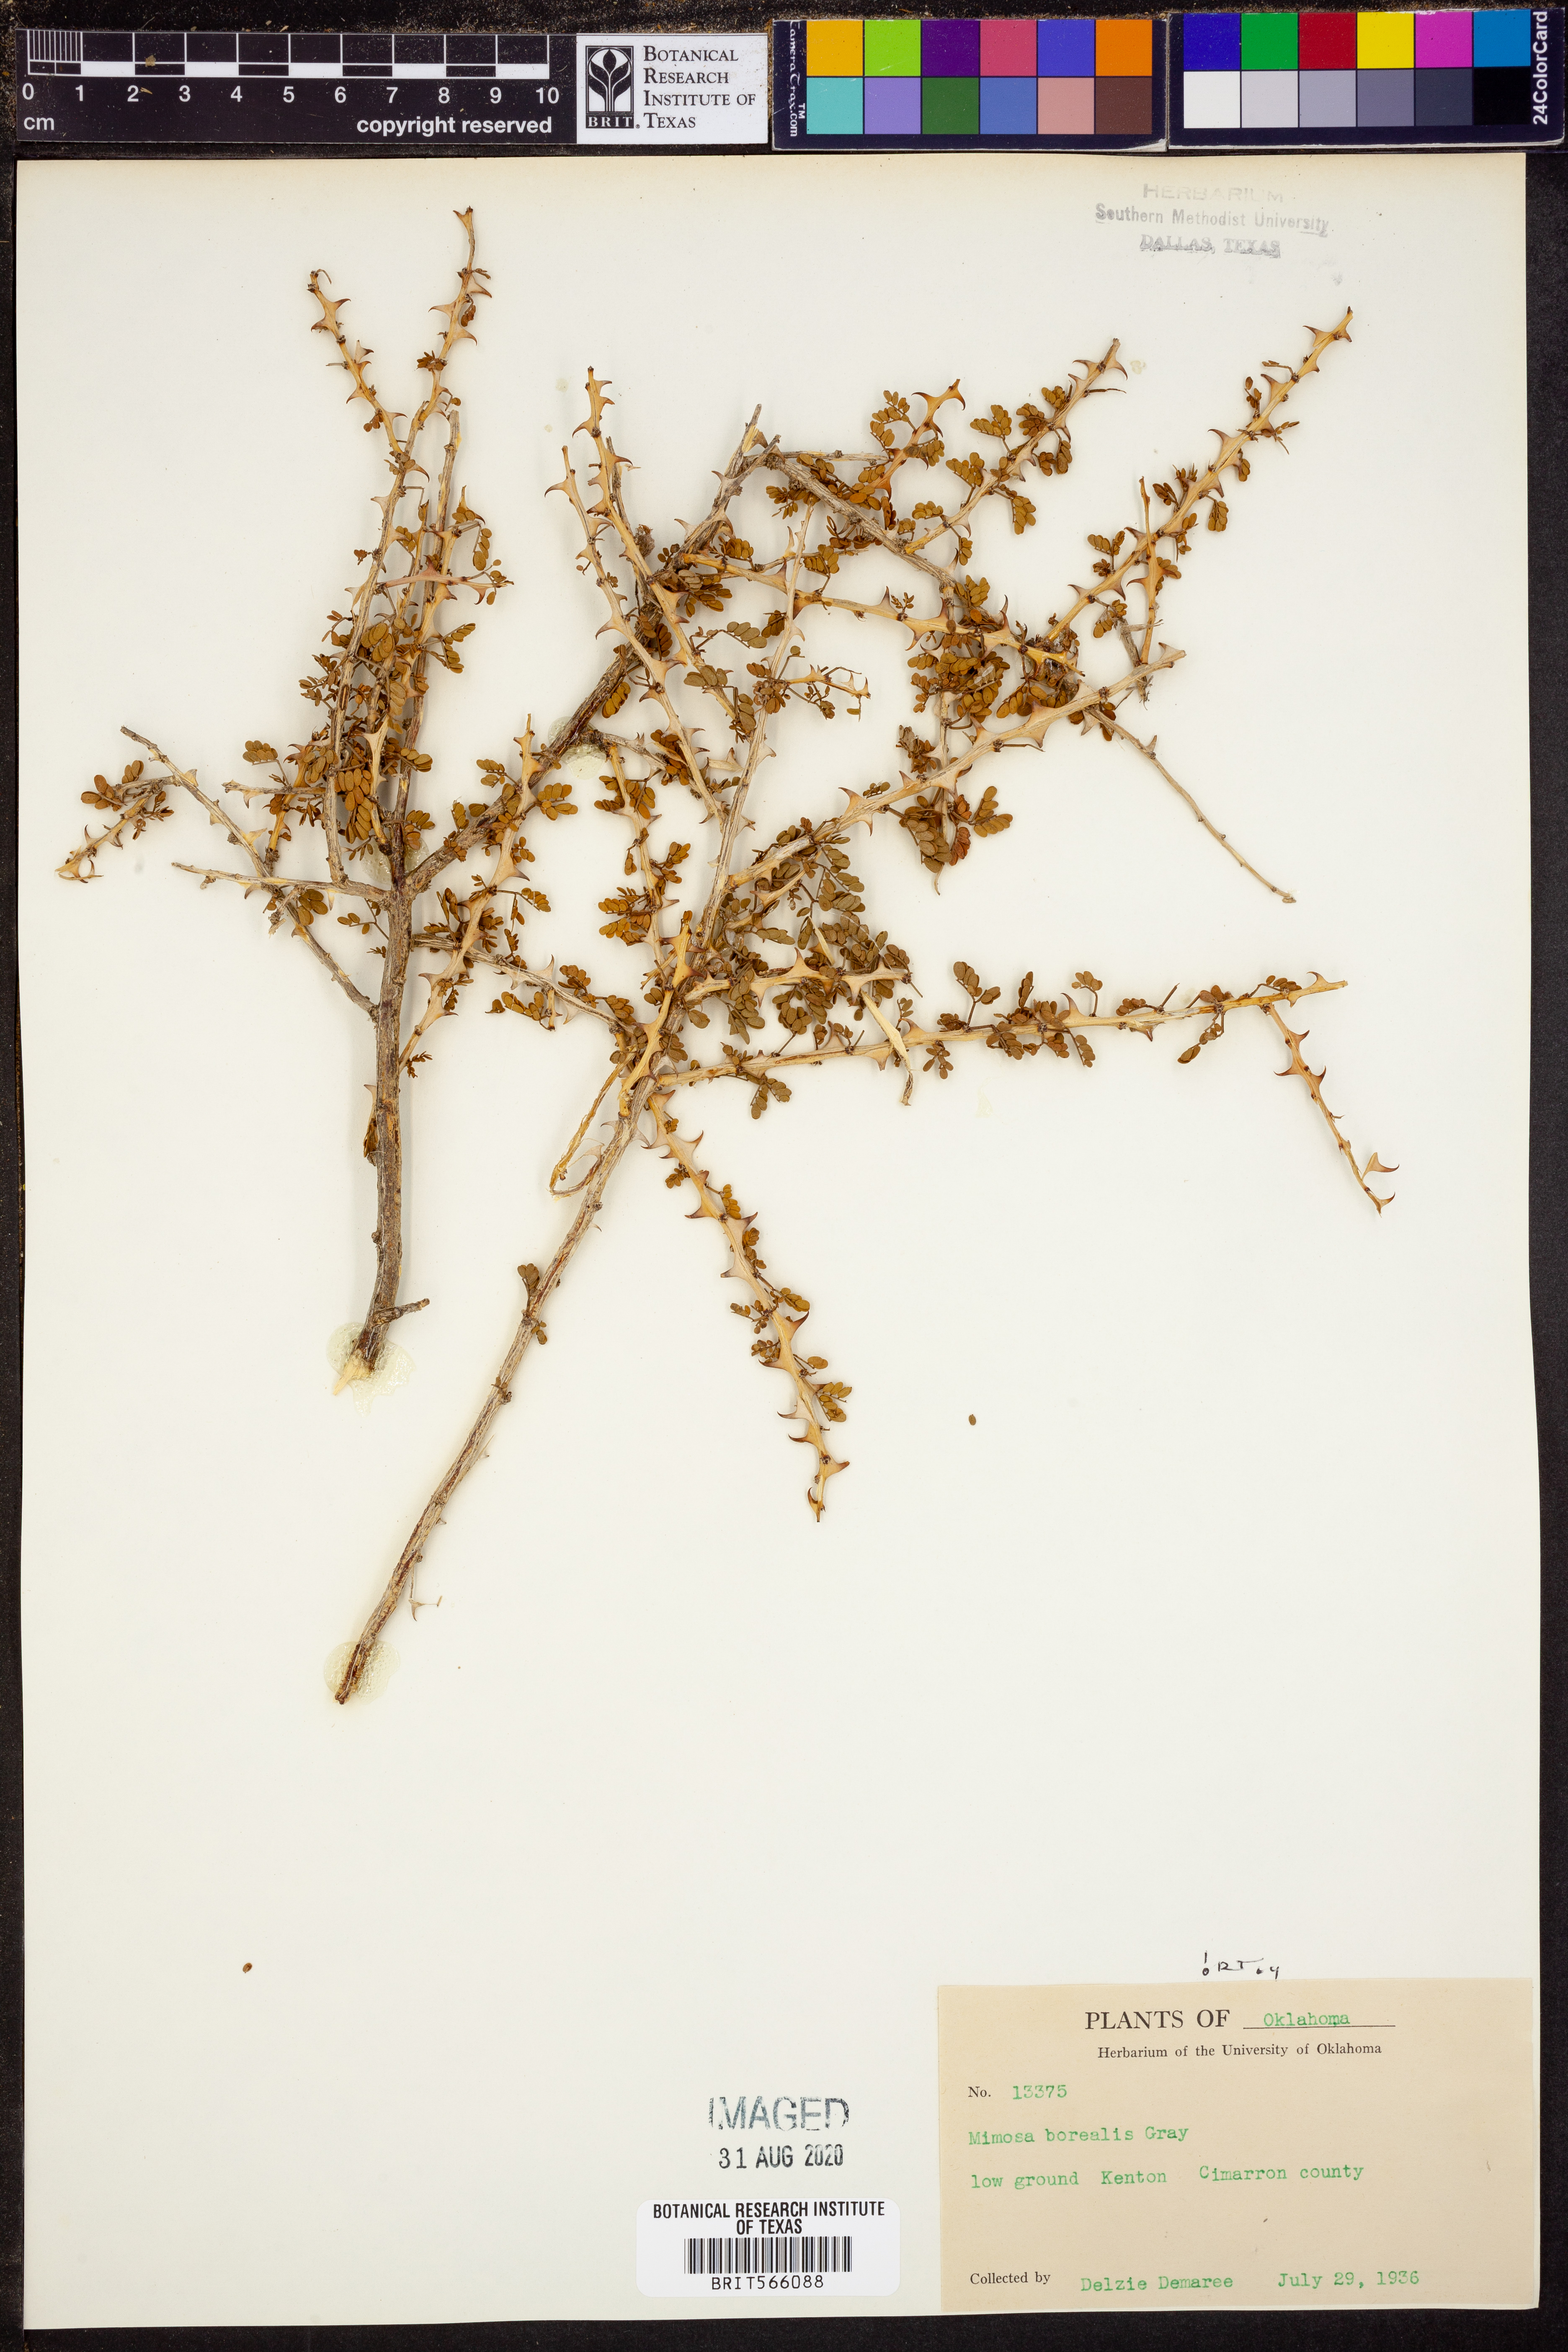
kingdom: Plantae
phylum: Tracheophyta
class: Magnoliopsida
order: Fabales
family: Fabaceae
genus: Mimosa
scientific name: Mimosa borealis
